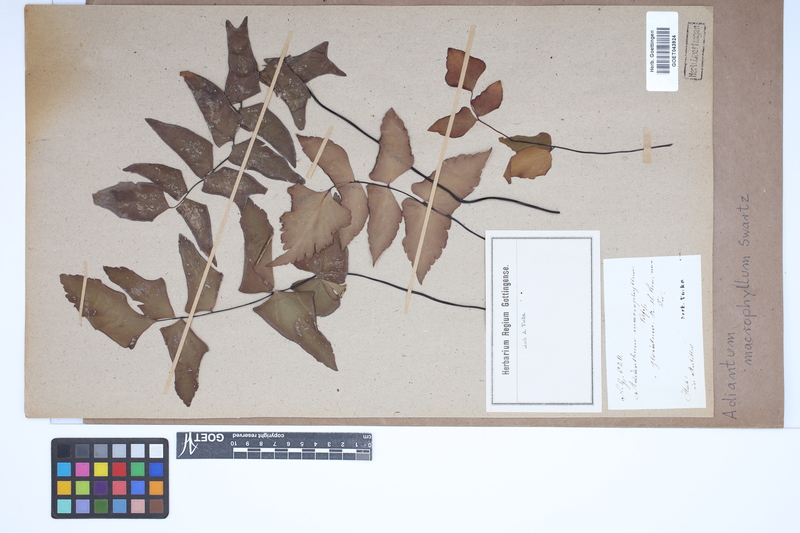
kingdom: Plantae
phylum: Tracheophyta
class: Polypodiopsida
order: Polypodiales
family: Pteridaceae
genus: Adiantum
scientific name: Adiantum macrophyllum
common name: Largeleaf maidenhair
